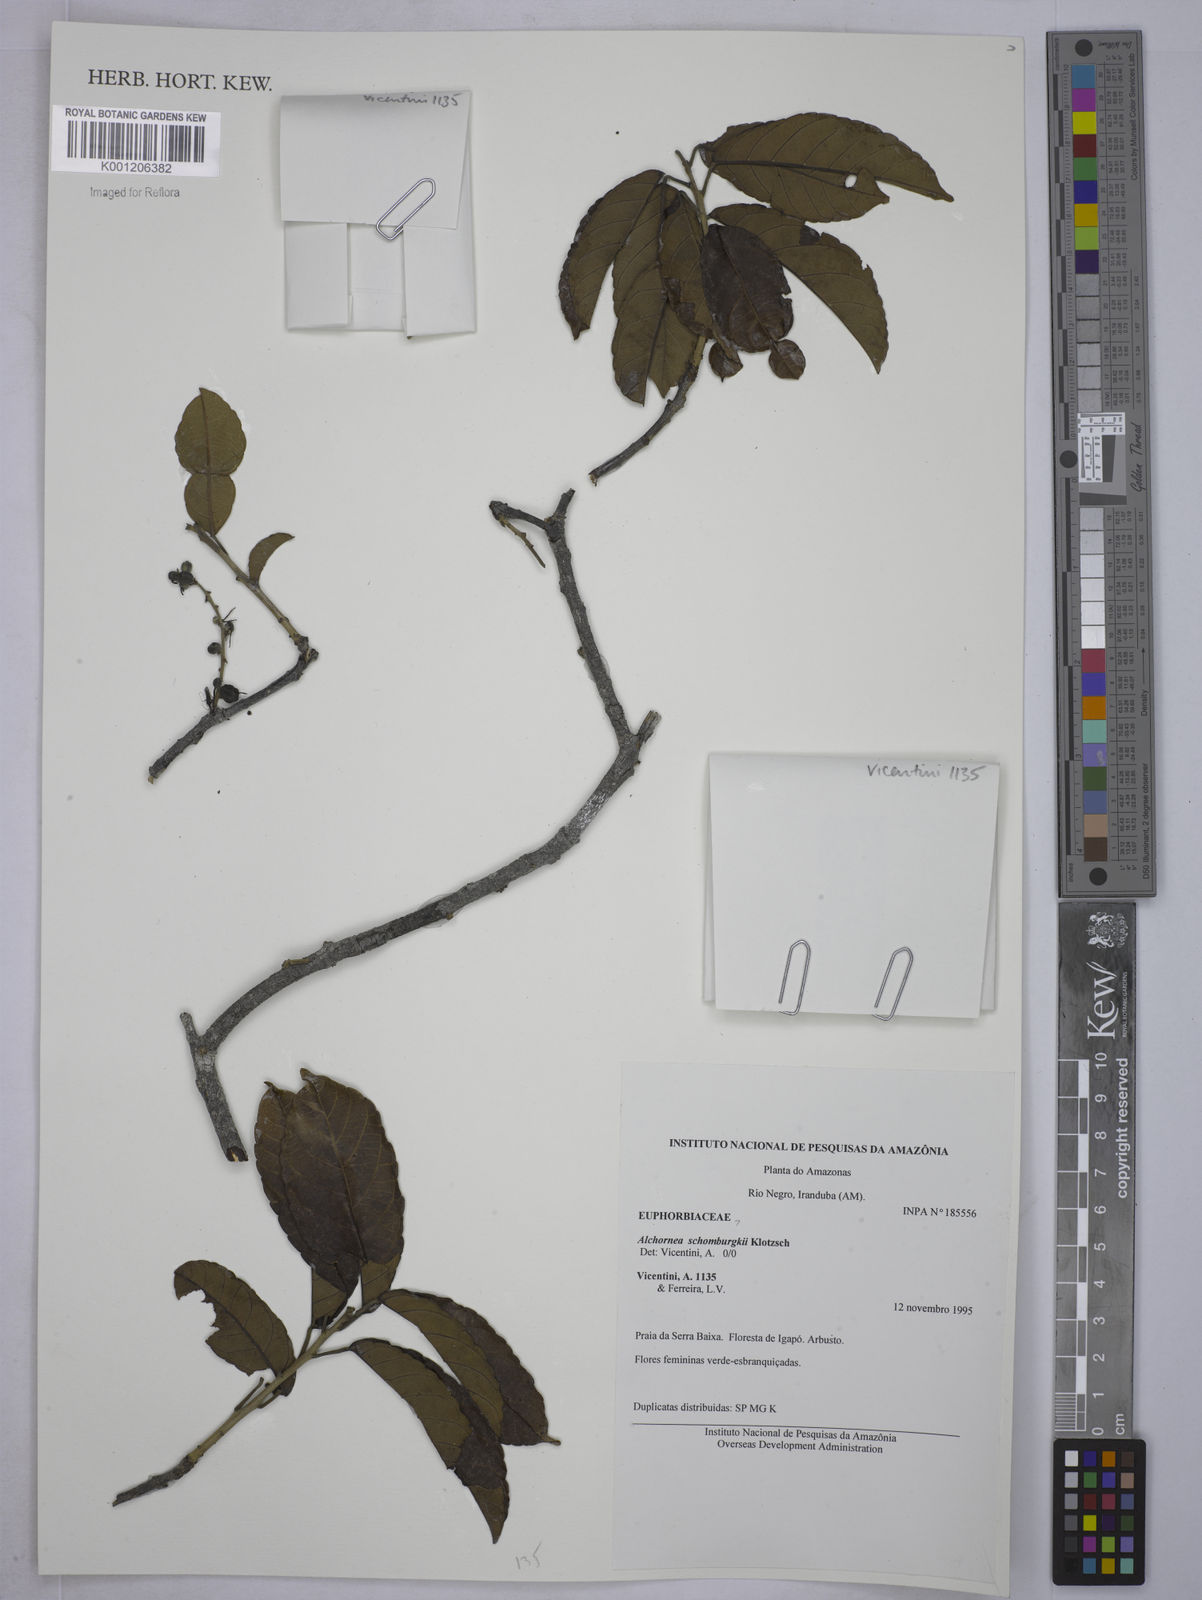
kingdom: Plantae
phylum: Tracheophyta
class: Magnoliopsida
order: Malpighiales
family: Euphorbiaceae
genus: Alchornea
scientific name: Alchornea
